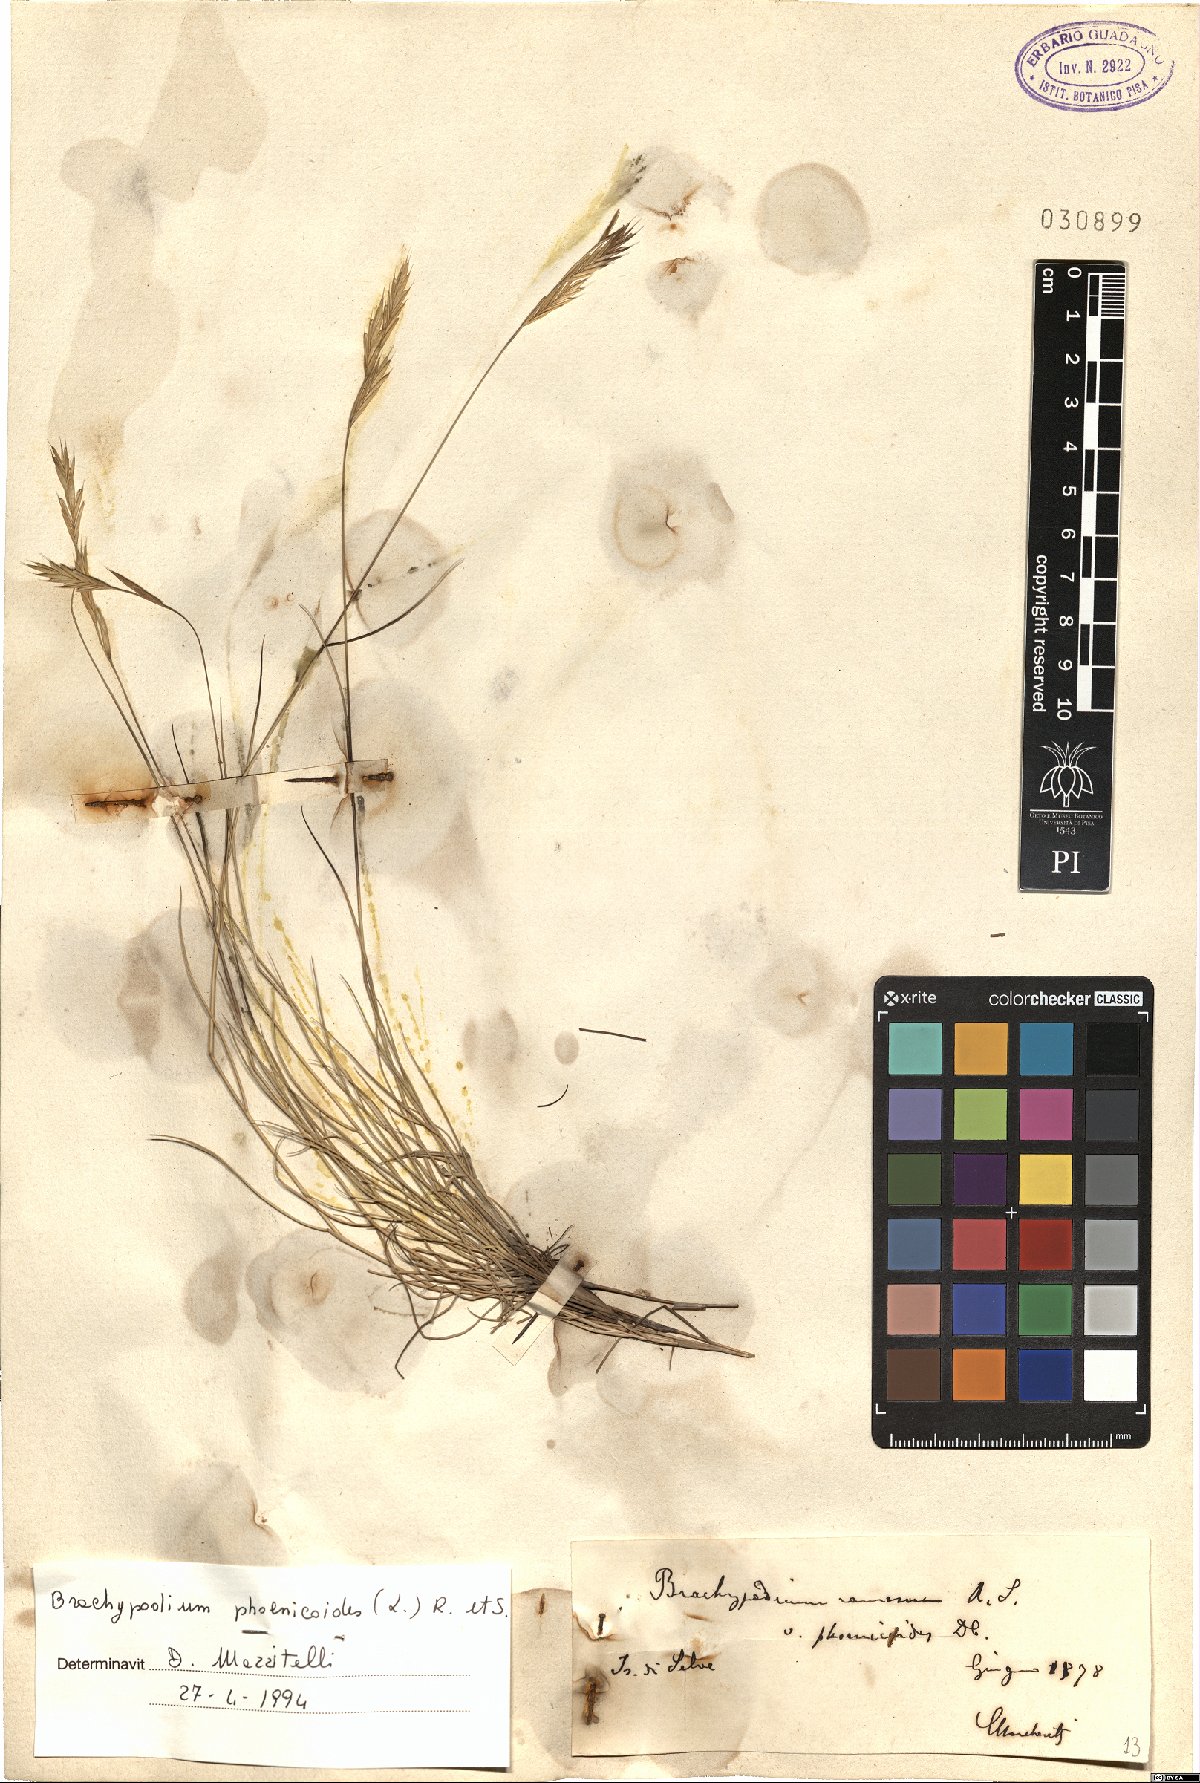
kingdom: Plantae
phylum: Tracheophyta
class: Liliopsida
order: Poales
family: Poaceae
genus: Brachypodium
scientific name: Brachypodium phoenicoides
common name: Thinleaf false brome
